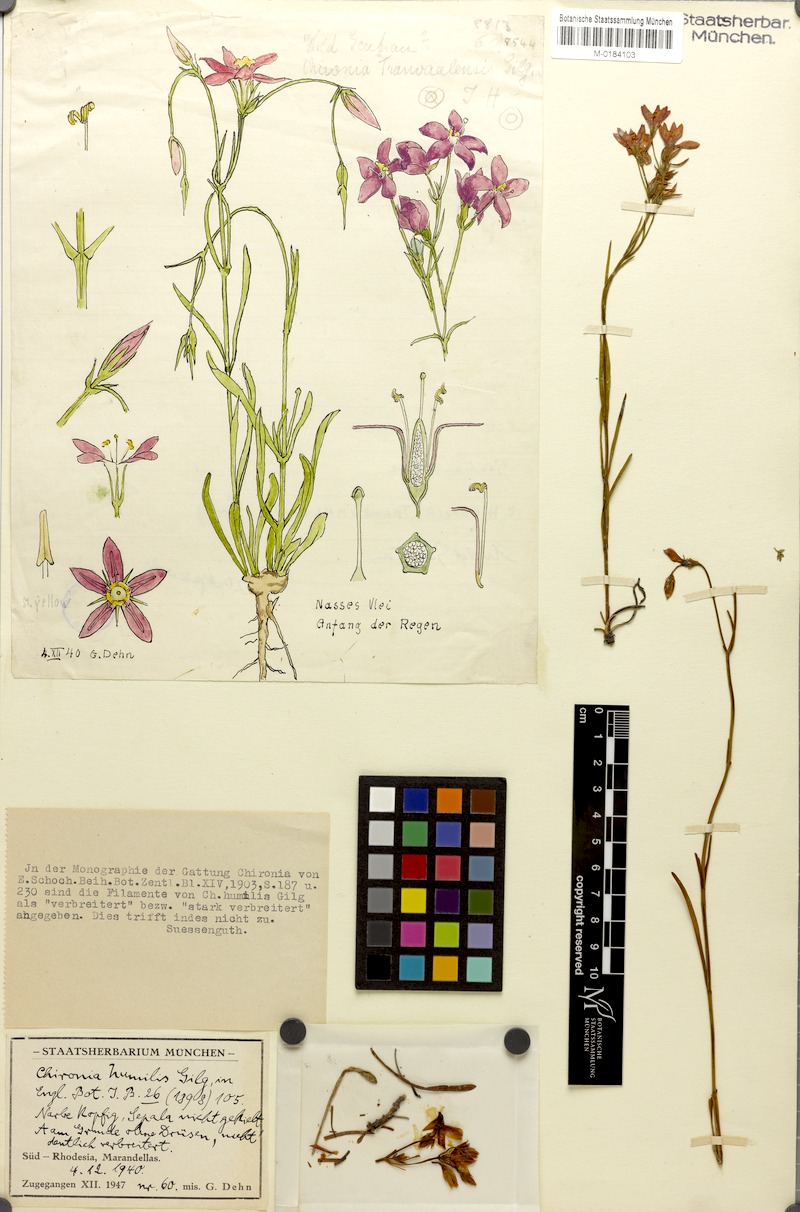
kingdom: Plantae
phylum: Tracheophyta
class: Magnoliopsida
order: Gentianales
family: Gentianaceae
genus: Chironia
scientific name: Chironia purpurascens
